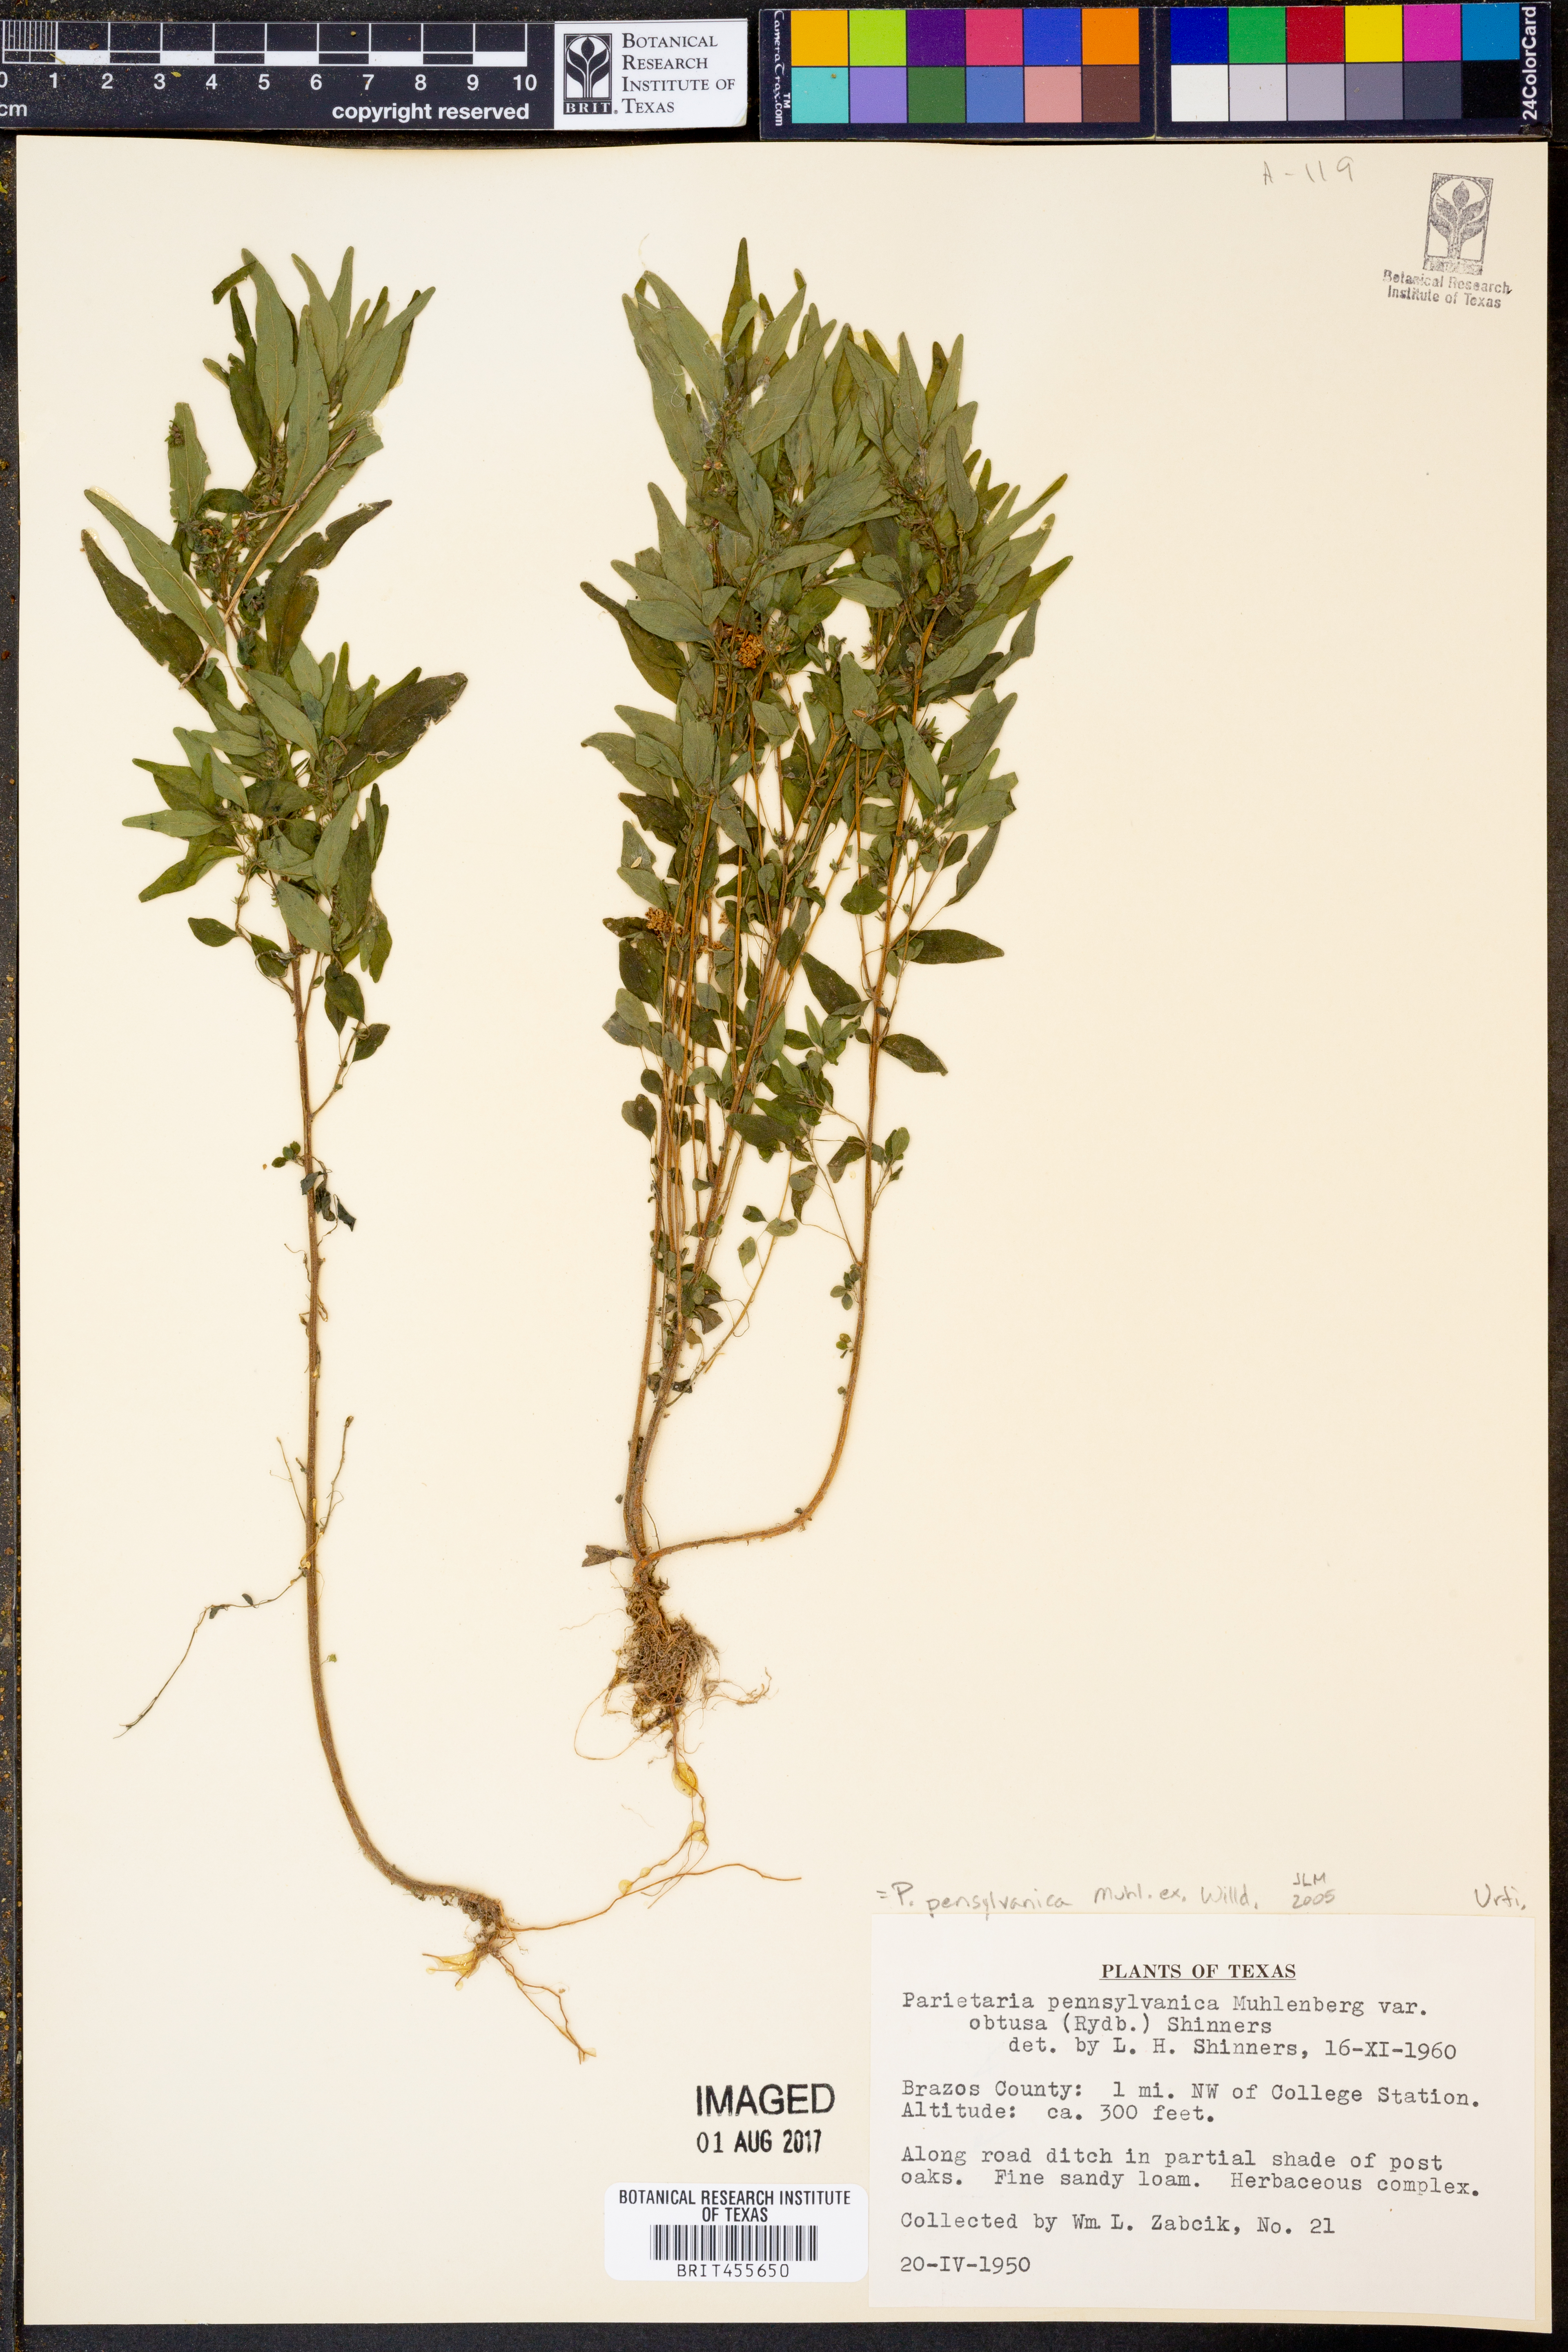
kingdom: Plantae
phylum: Tracheophyta
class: Magnoliopsida
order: Rosales
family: Urticaceae
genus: Parietaria
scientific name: Parietaria pensylvanica
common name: Pennsylvania pellitory
